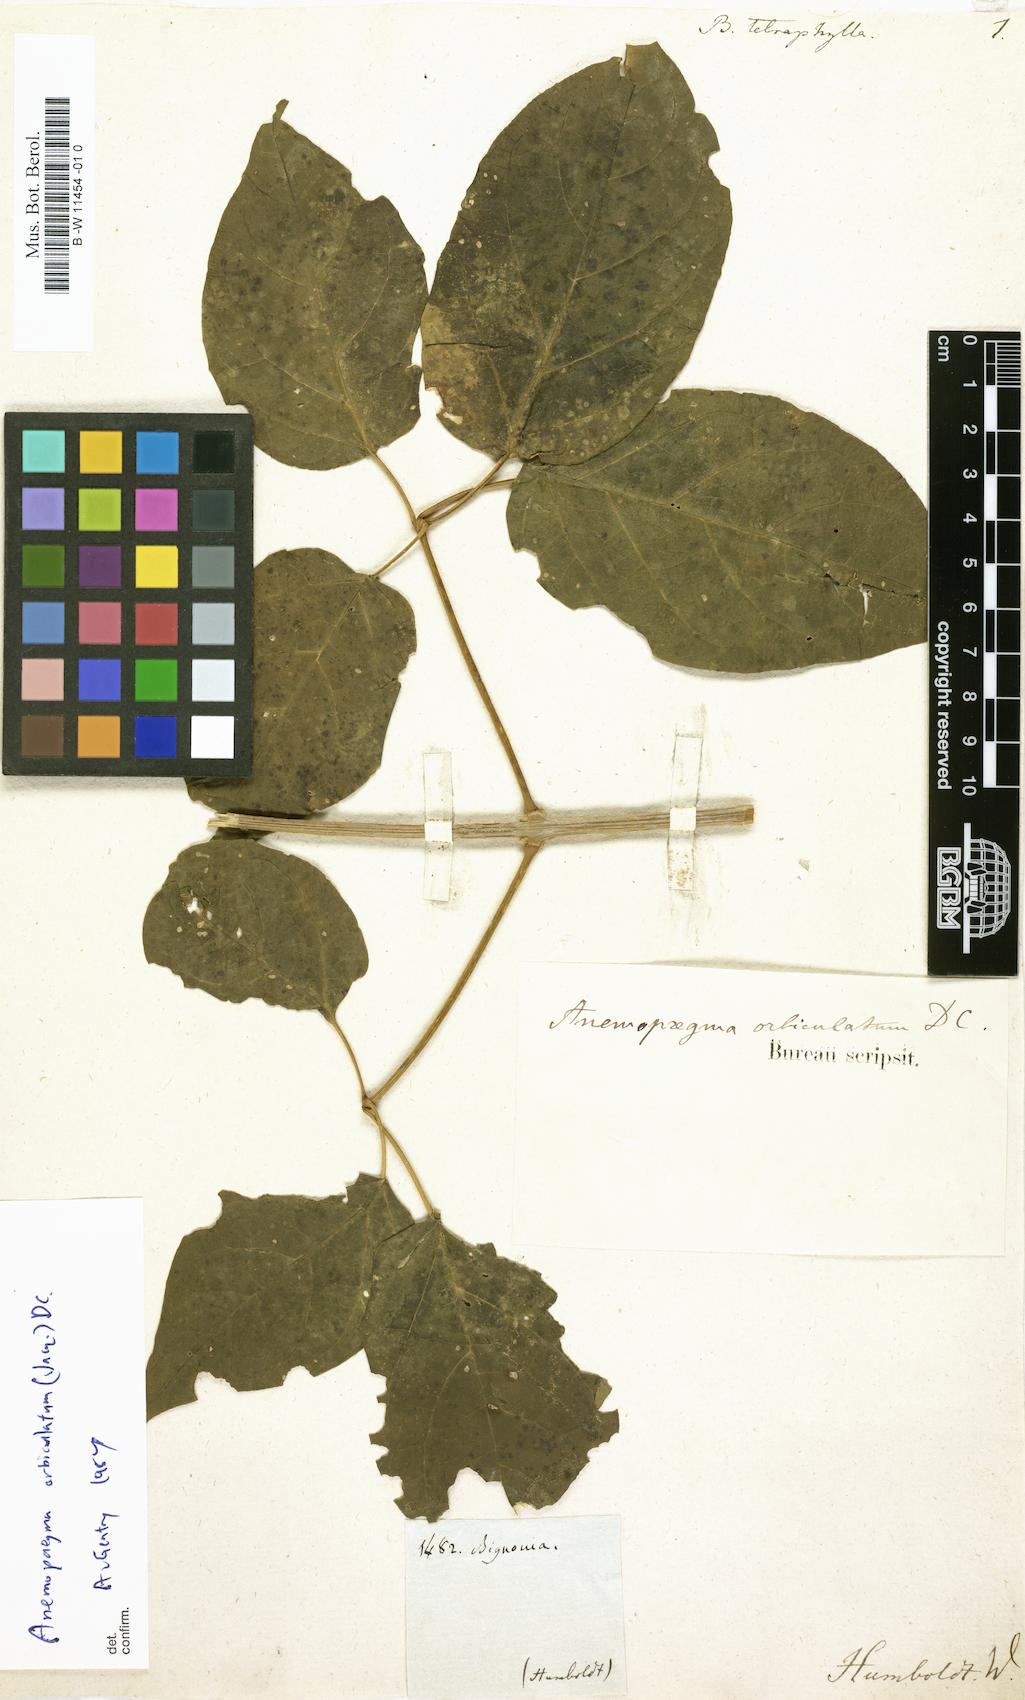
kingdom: Plantae
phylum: Tracheophyta
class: Magnoliopsida
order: Lamiales
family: Bignoniaceae
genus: Bignonia
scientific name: Bignonia
